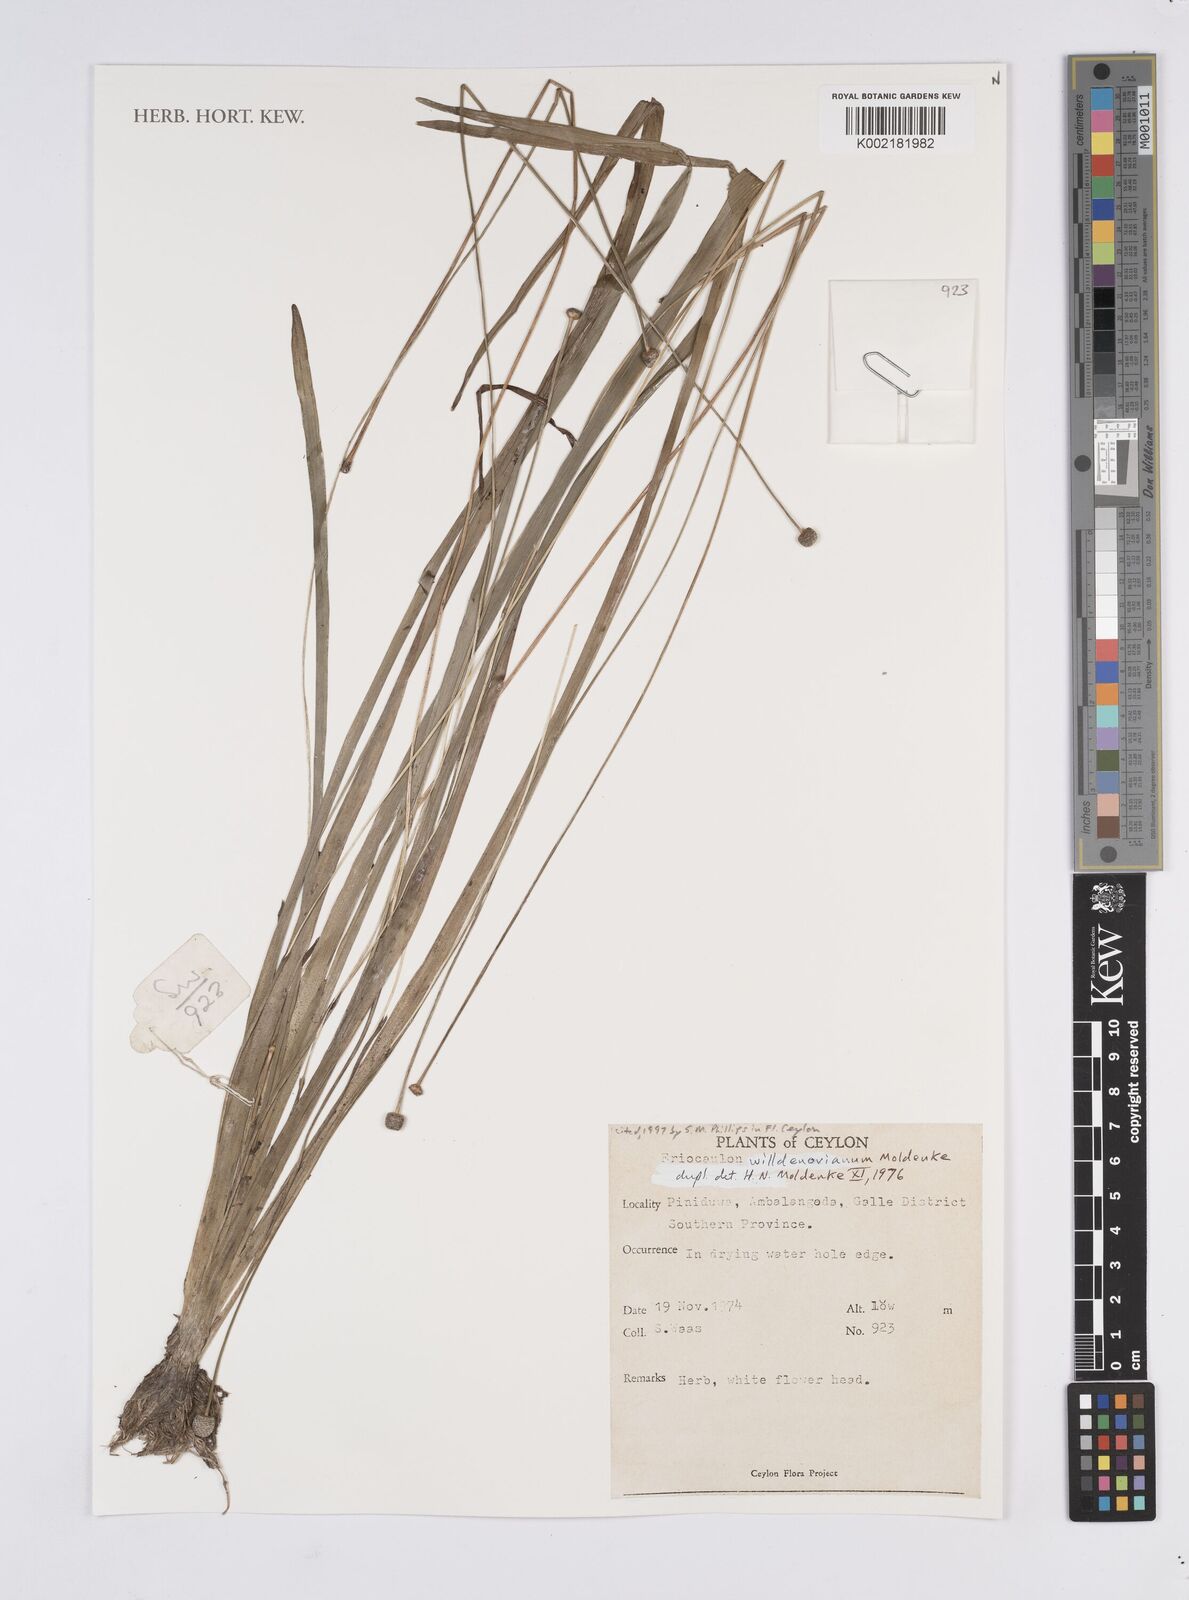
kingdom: Plantae
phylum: Tracheophyta
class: Liliopsida
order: Poales
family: Eriocaulaceae
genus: Eriocaulon
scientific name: Eriocaulon willdenovianum
